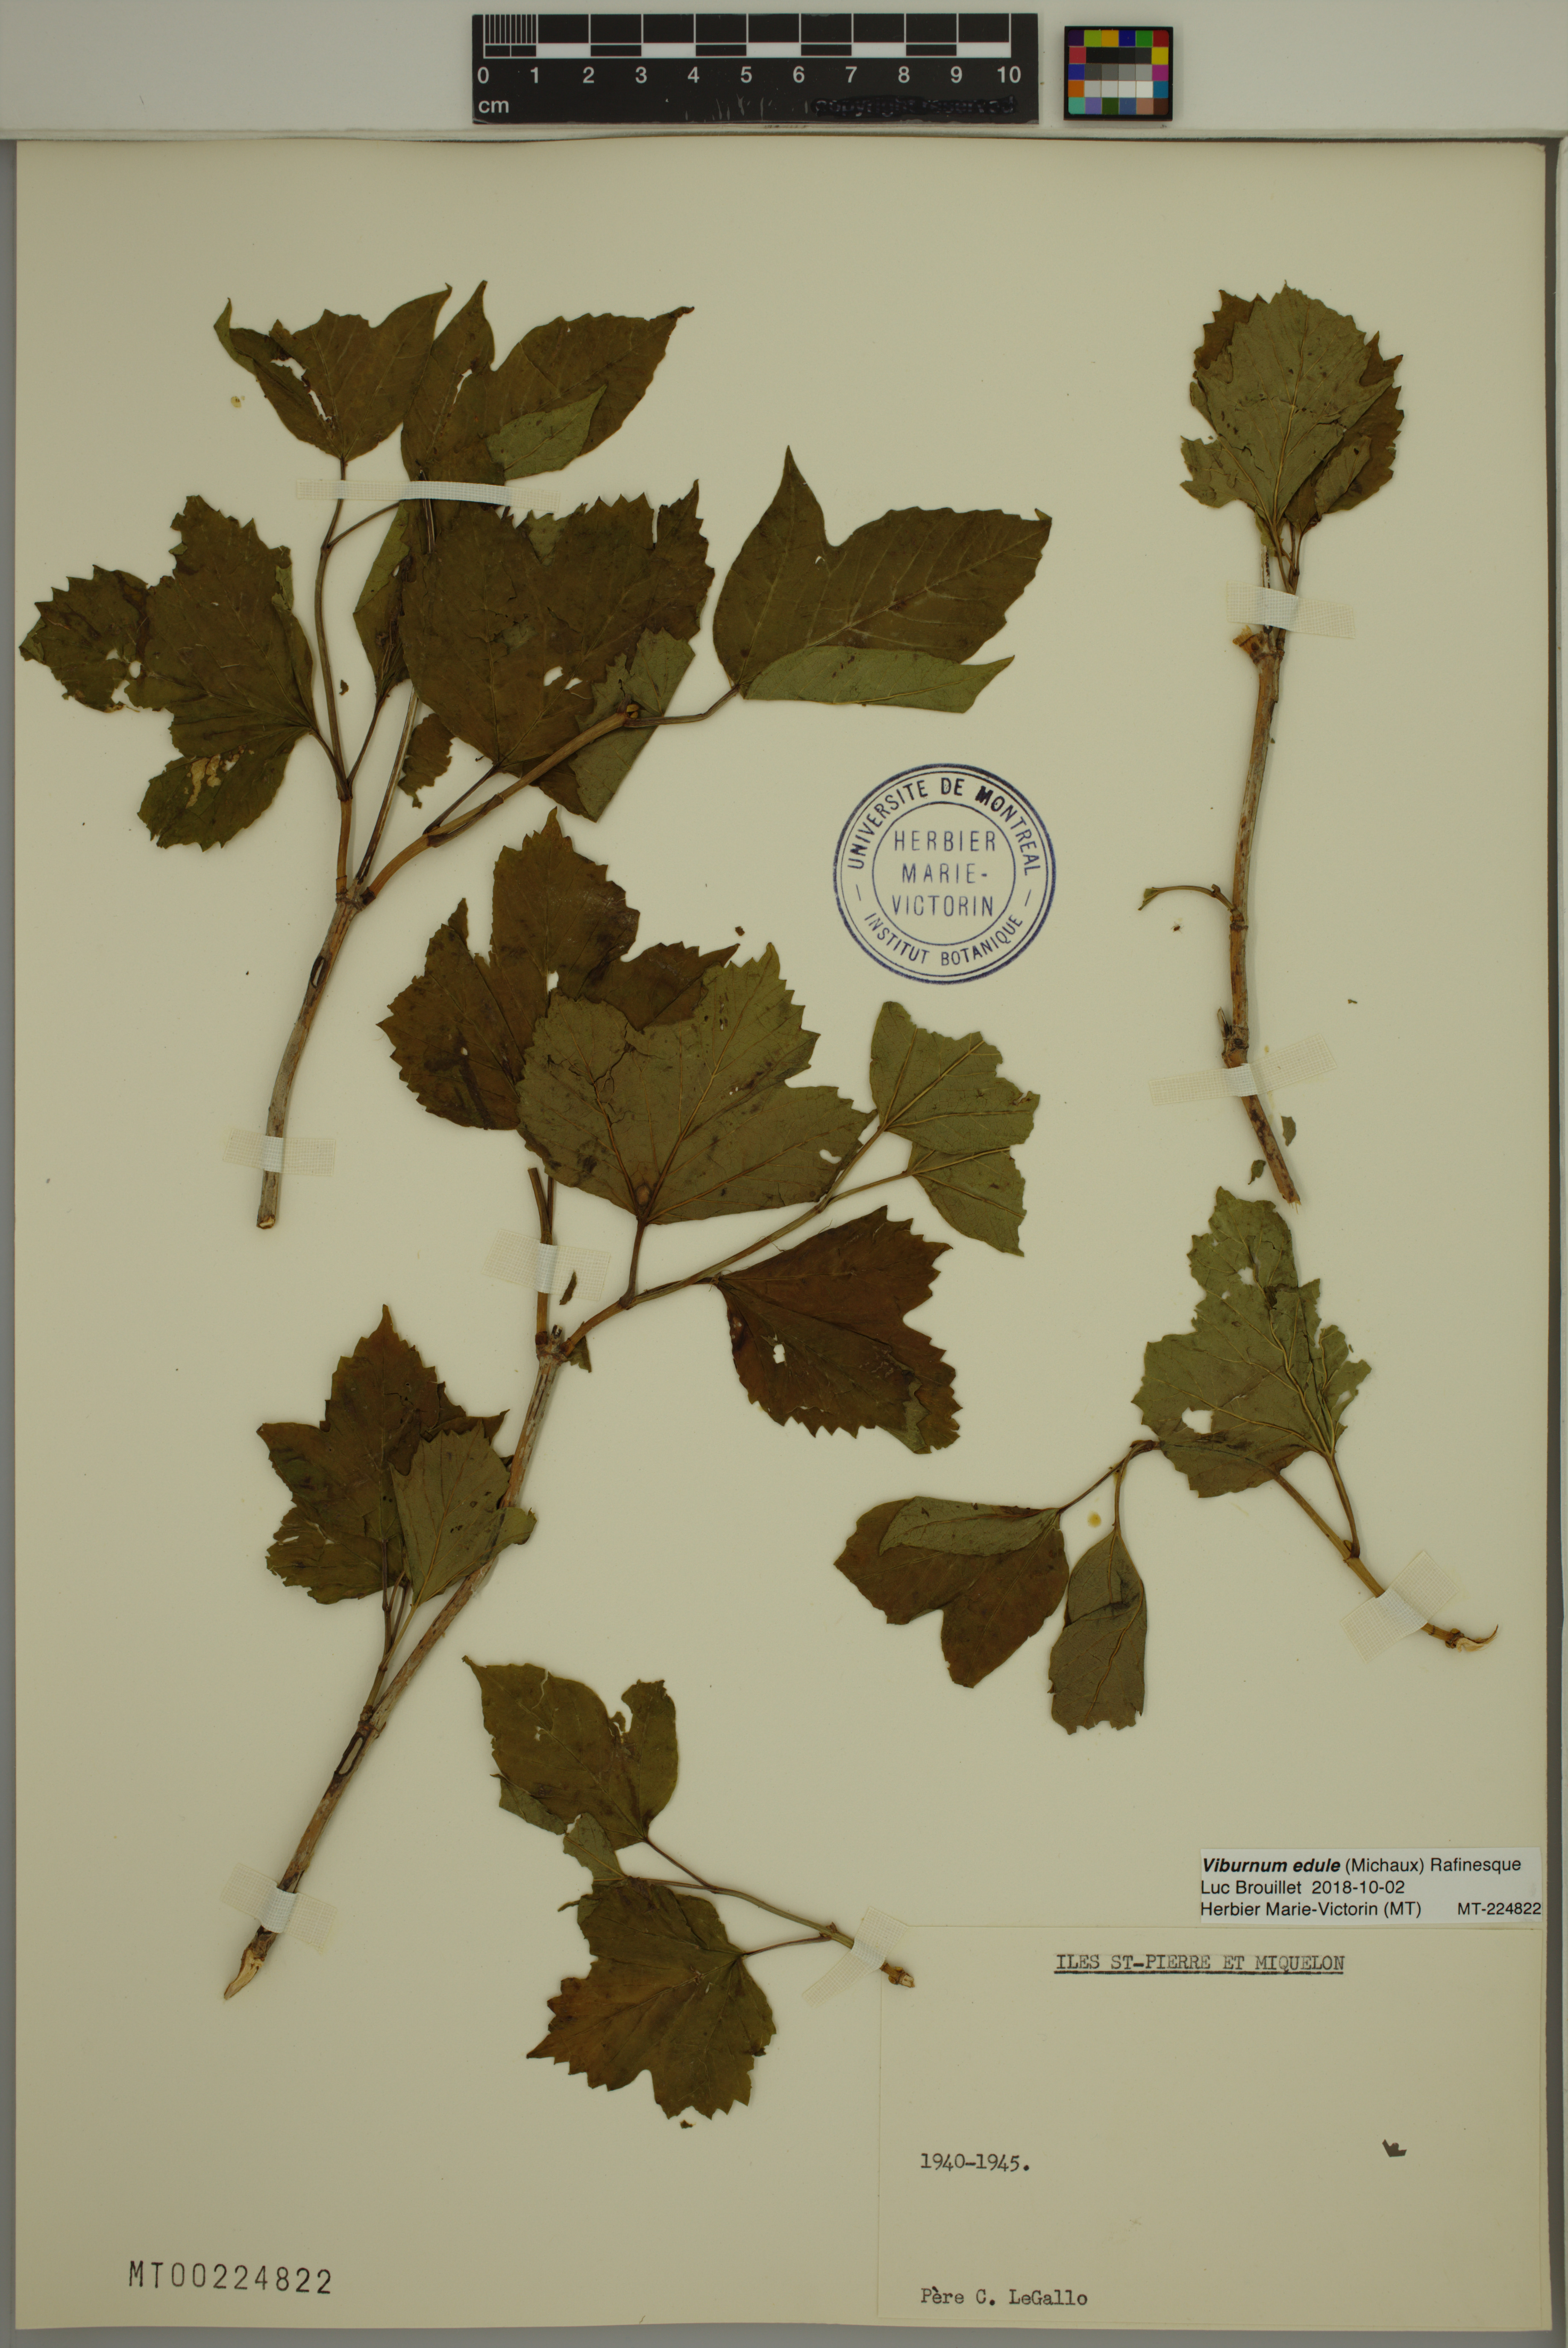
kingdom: Plantae
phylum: Tracheophyta
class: Magnoliopsida
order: Dipsacales
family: Viburnaceae
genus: Viburnum
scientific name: Viburnum edule
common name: Mooseberry
